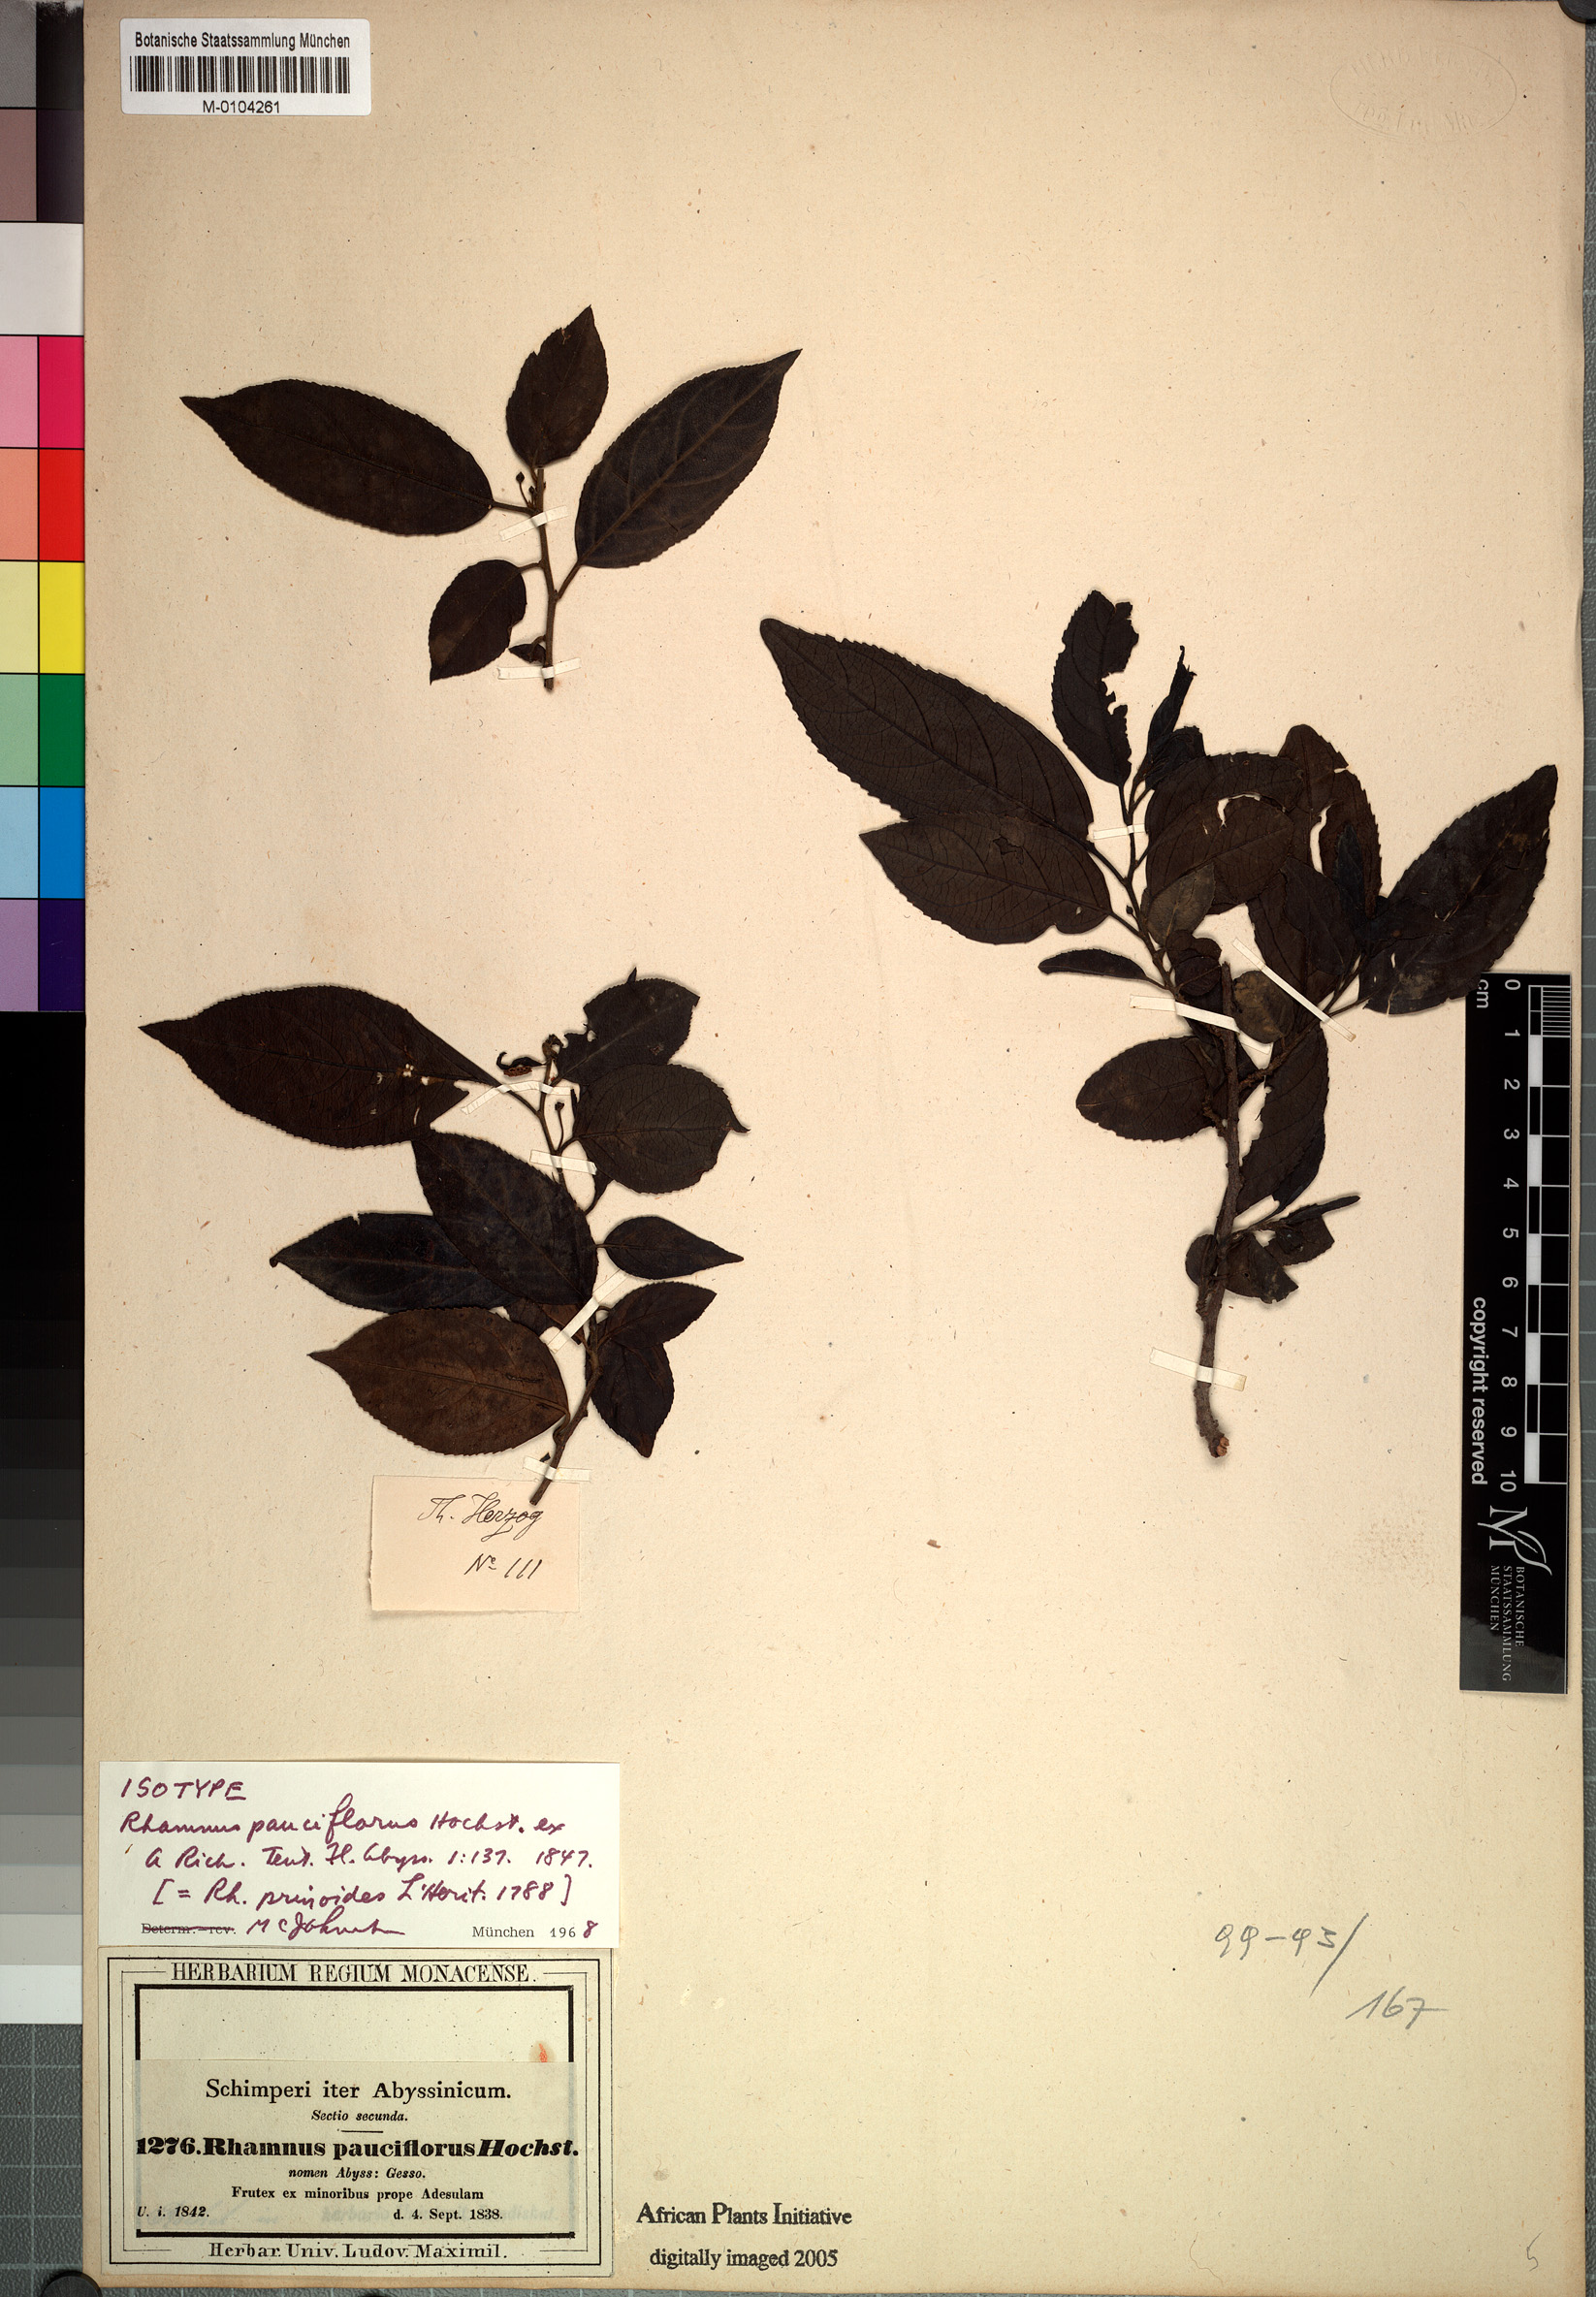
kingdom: Plantae
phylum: Tracheophyta
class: Magnoliopsida
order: Rosales
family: Rhamnaceae
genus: Rhamnus
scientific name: Rhamnus prinoides
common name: Dogwood
